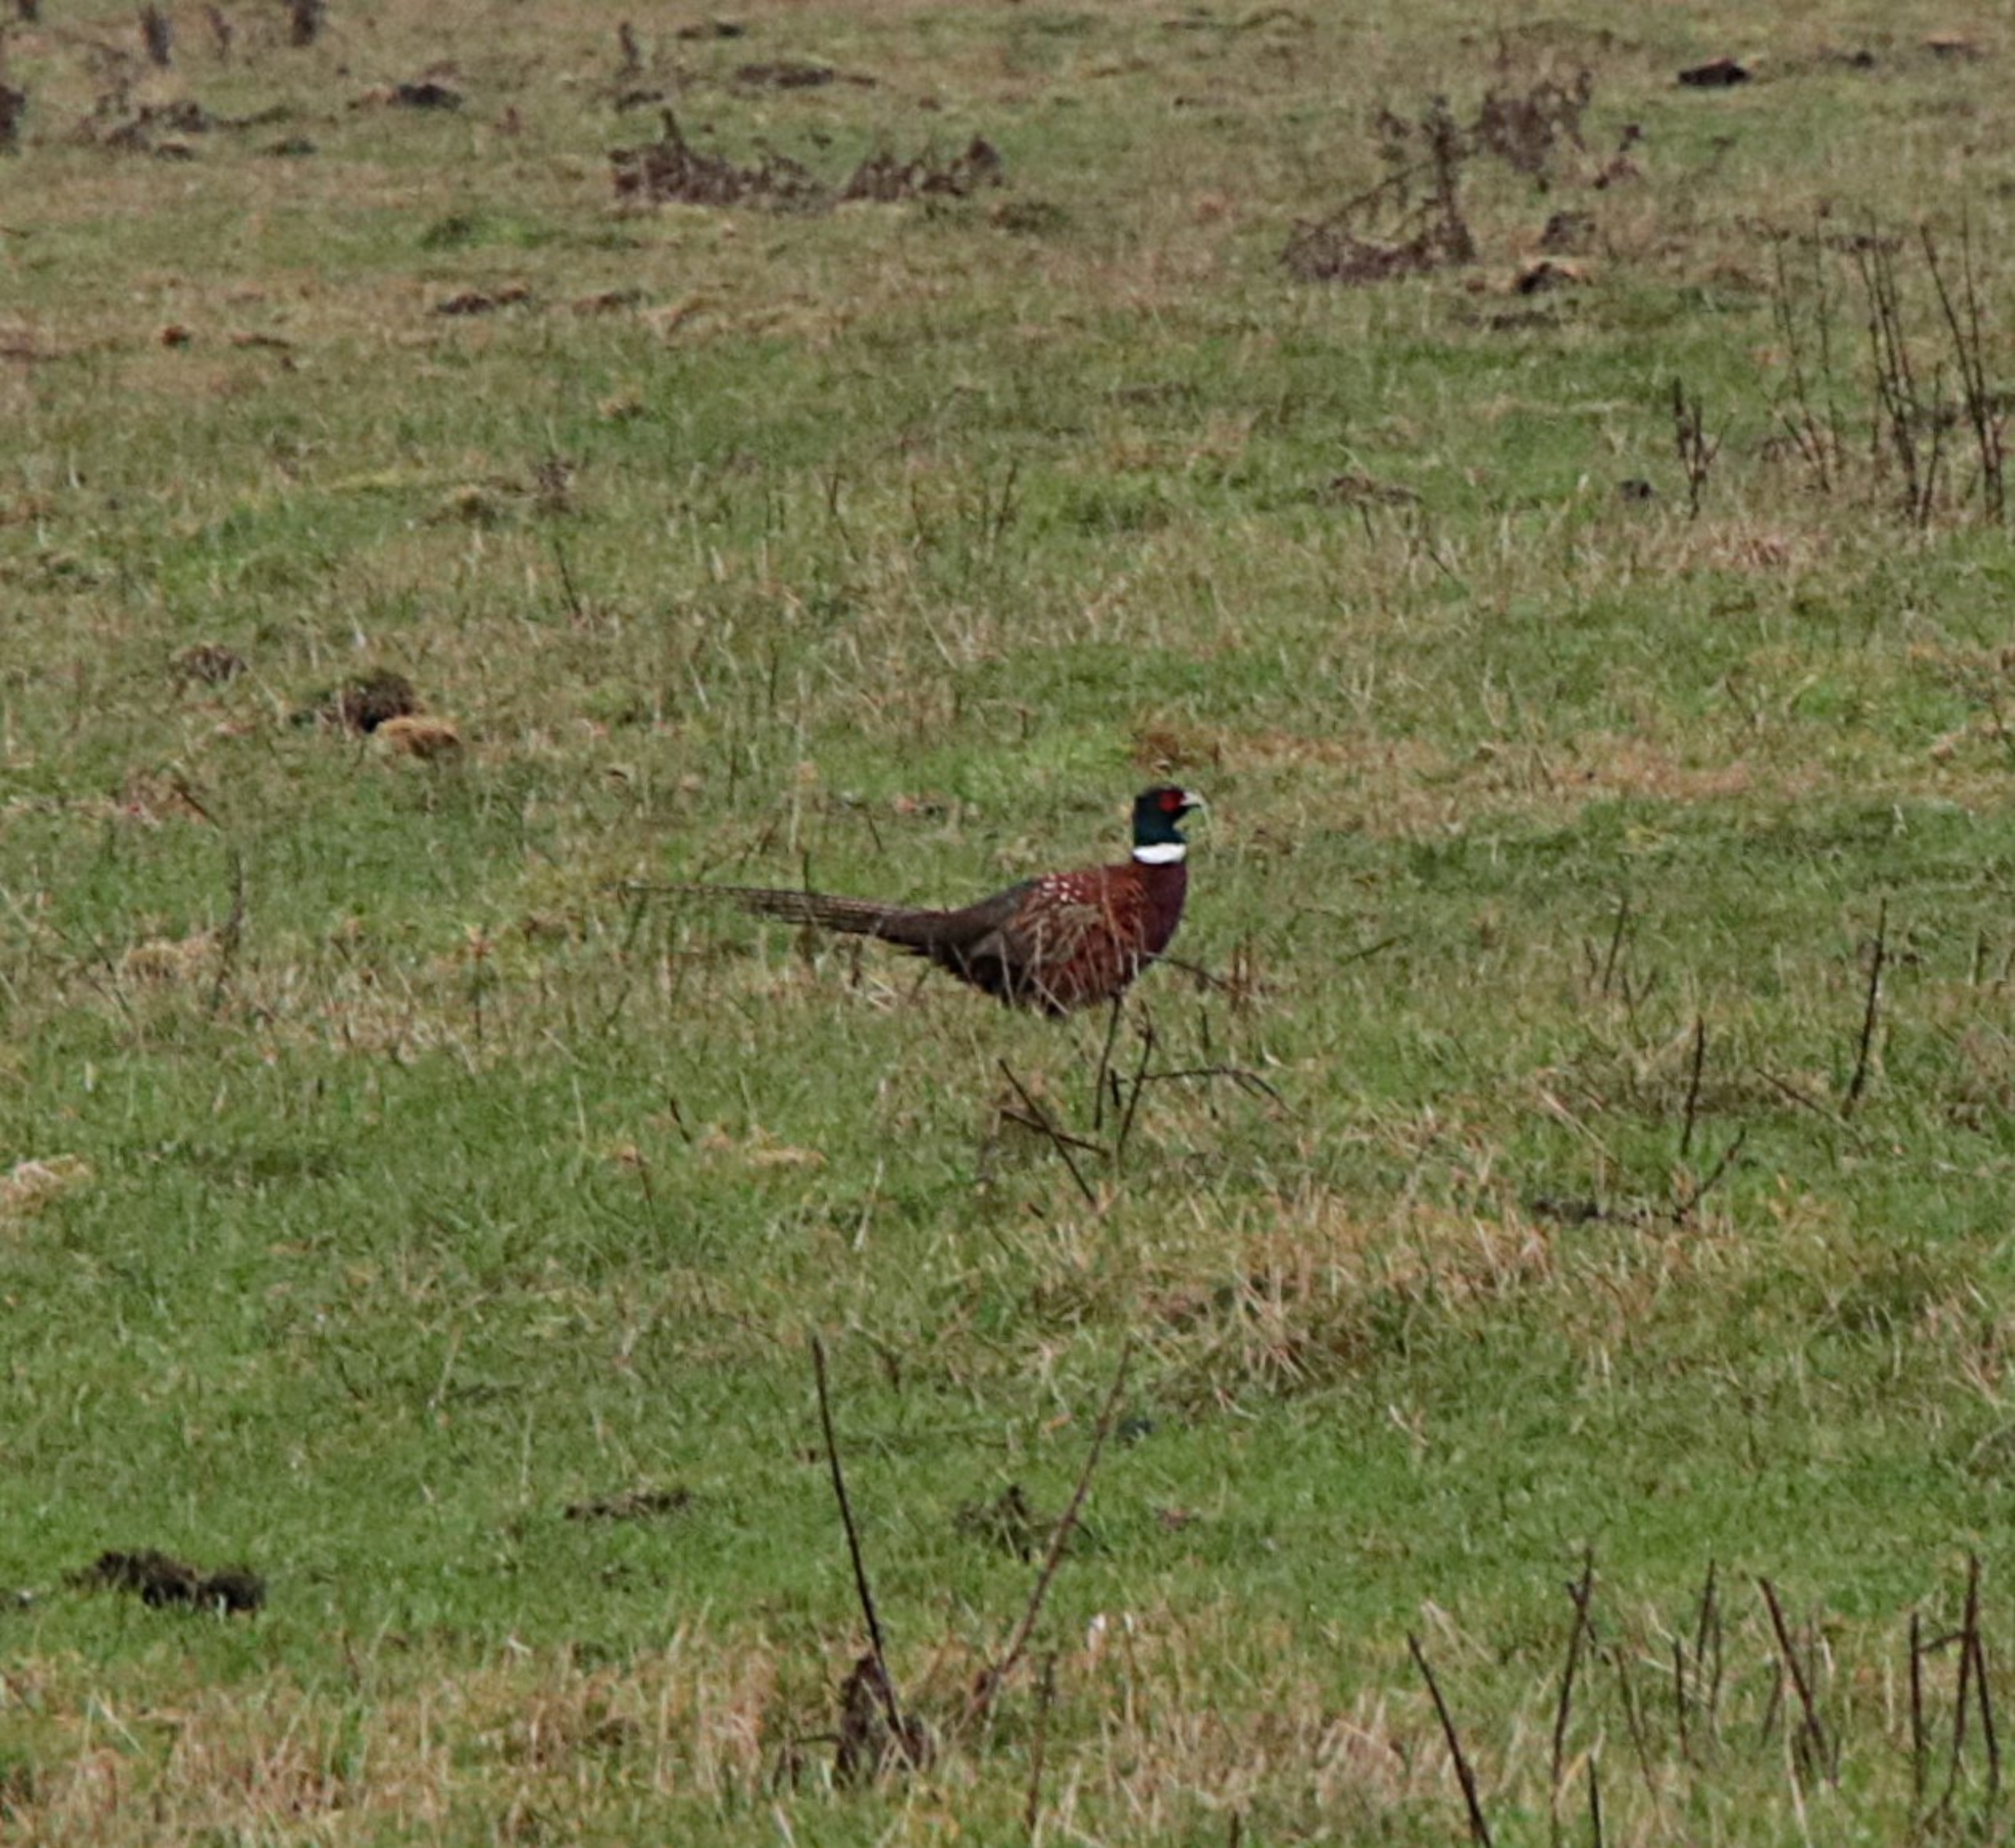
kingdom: Animalia
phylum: Chordata
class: Aves
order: Galliformes
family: Phasianidae
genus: Phasianus
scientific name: Phasianus colchicus
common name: Fasan
